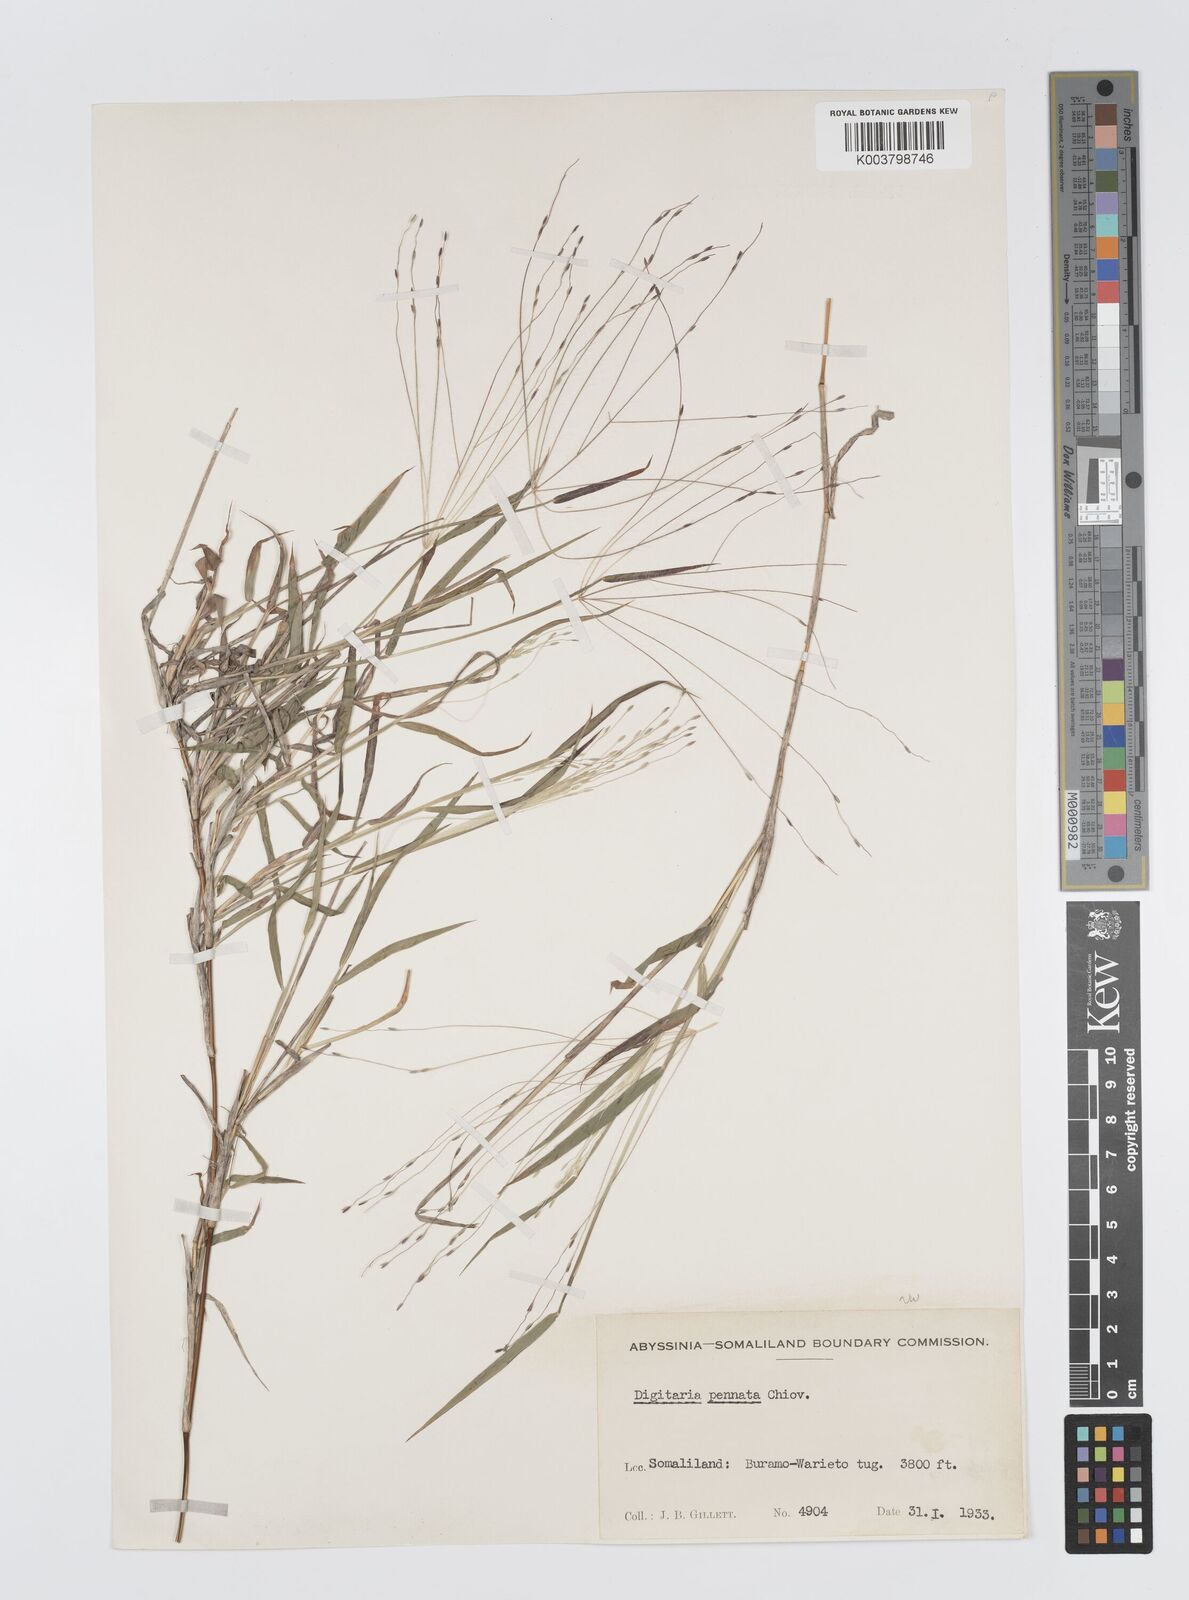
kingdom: Plantae
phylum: Tracheophyta
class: Liliopsida
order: Poales
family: Poaceae
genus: Digitaria
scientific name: Digitaria pennata
